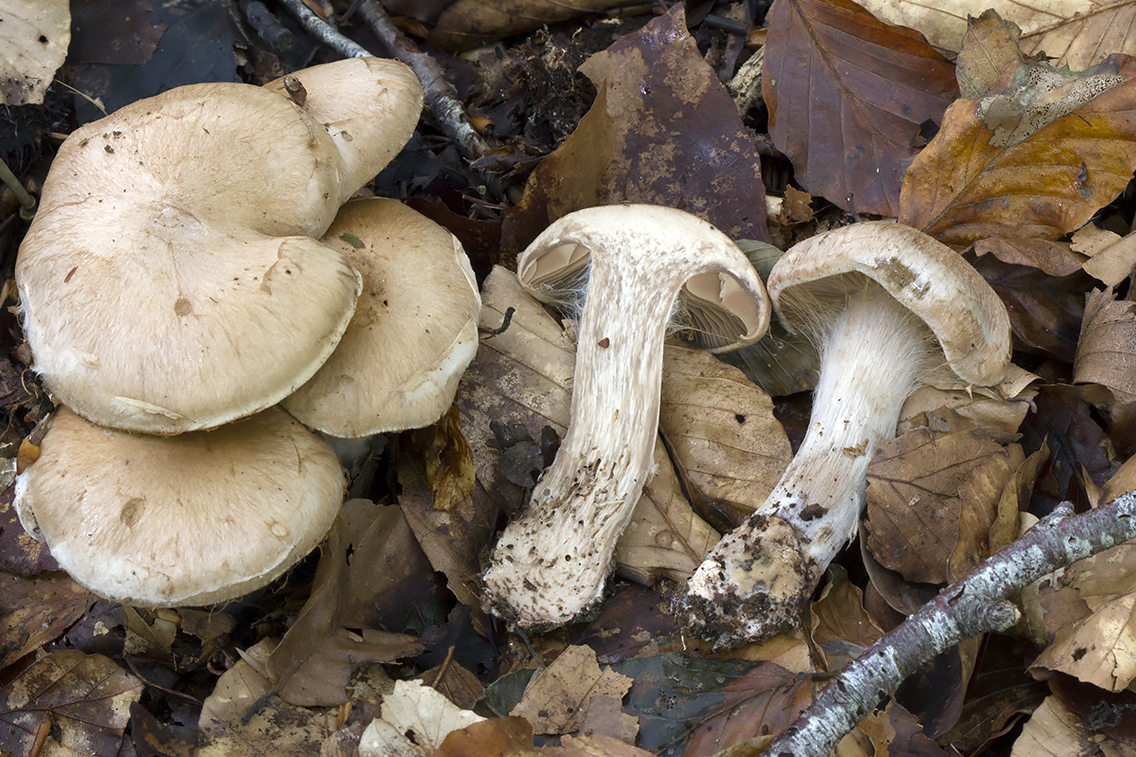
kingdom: Fungi
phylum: Basidiomycota
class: Agaricomycetes
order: Agaricales
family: Cortinariaceae
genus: Cortinarius
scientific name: Cortinarius sociatus
